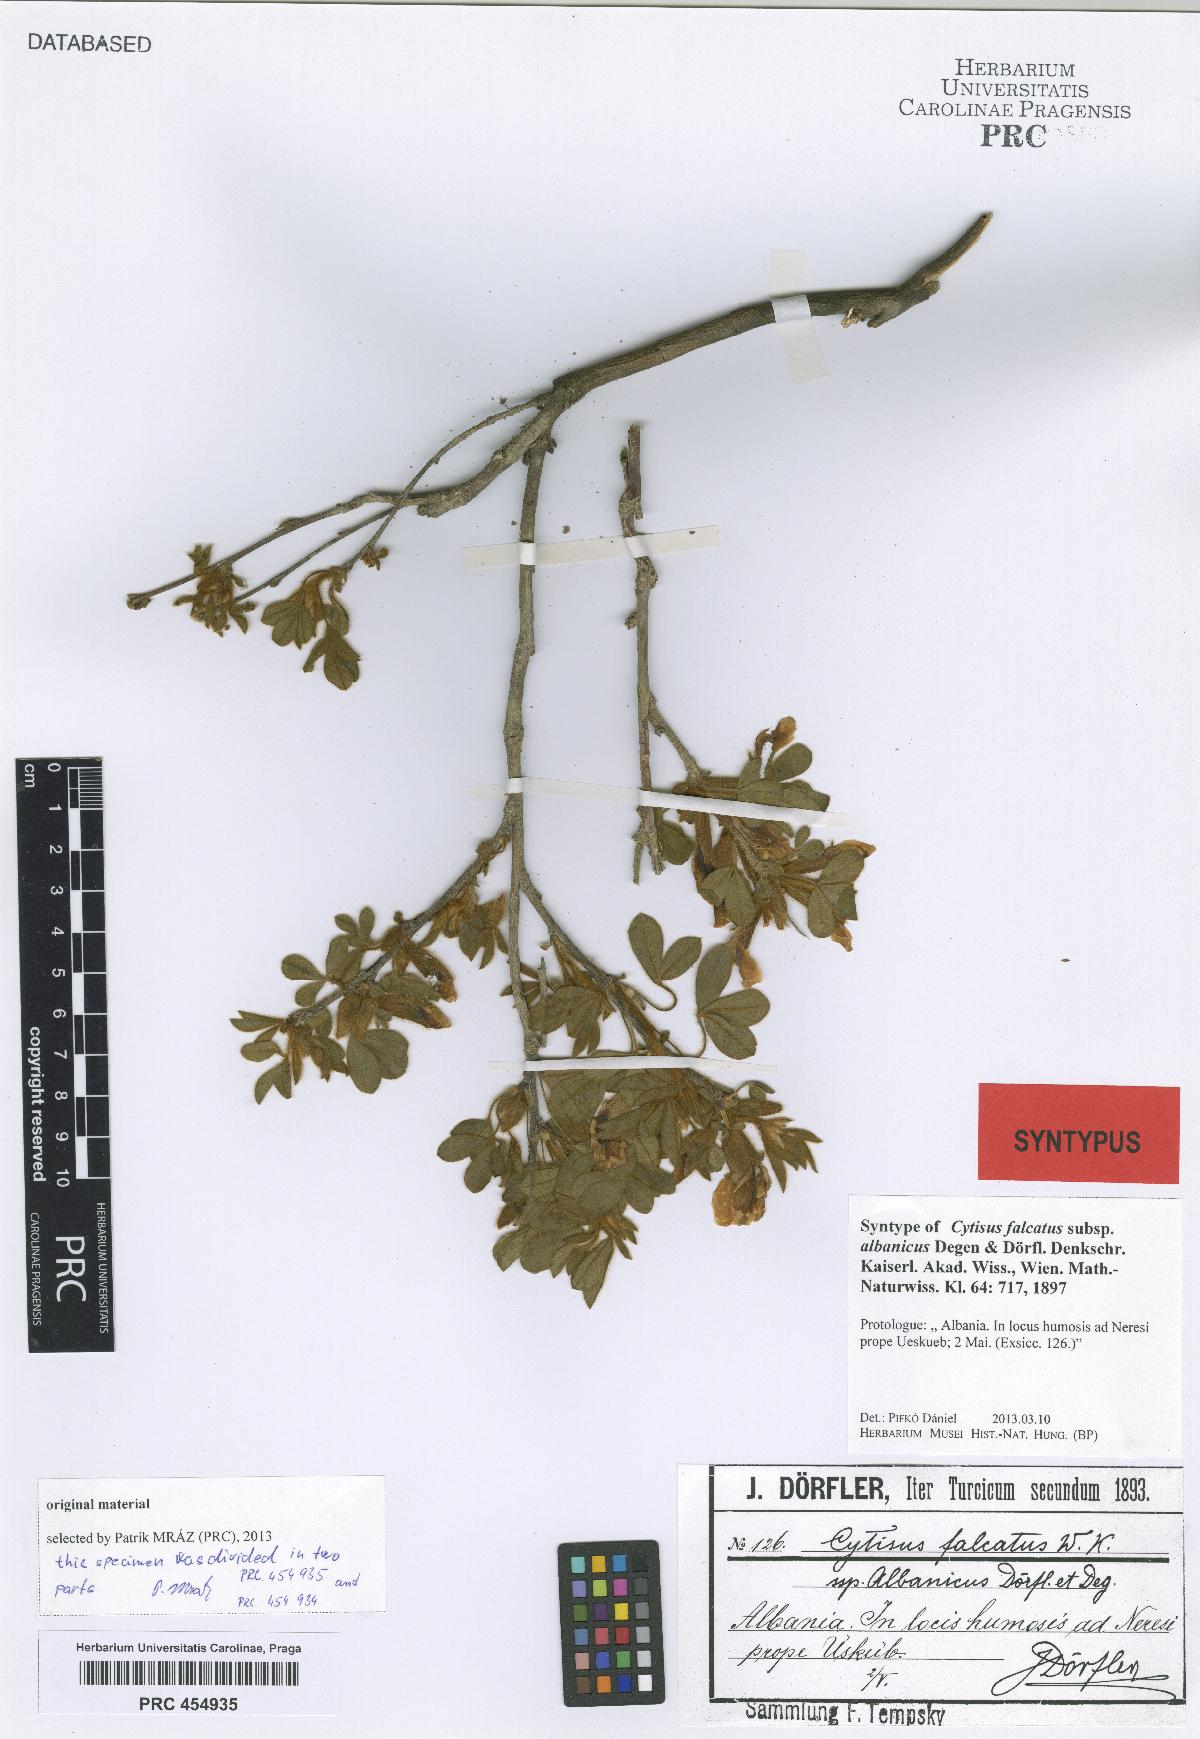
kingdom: Plantae
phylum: Tracheophyta
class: Magnoliopsida
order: Fabales
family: Fabaceae
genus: Chamaecytisus
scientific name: Chamaecytisus triflorus
